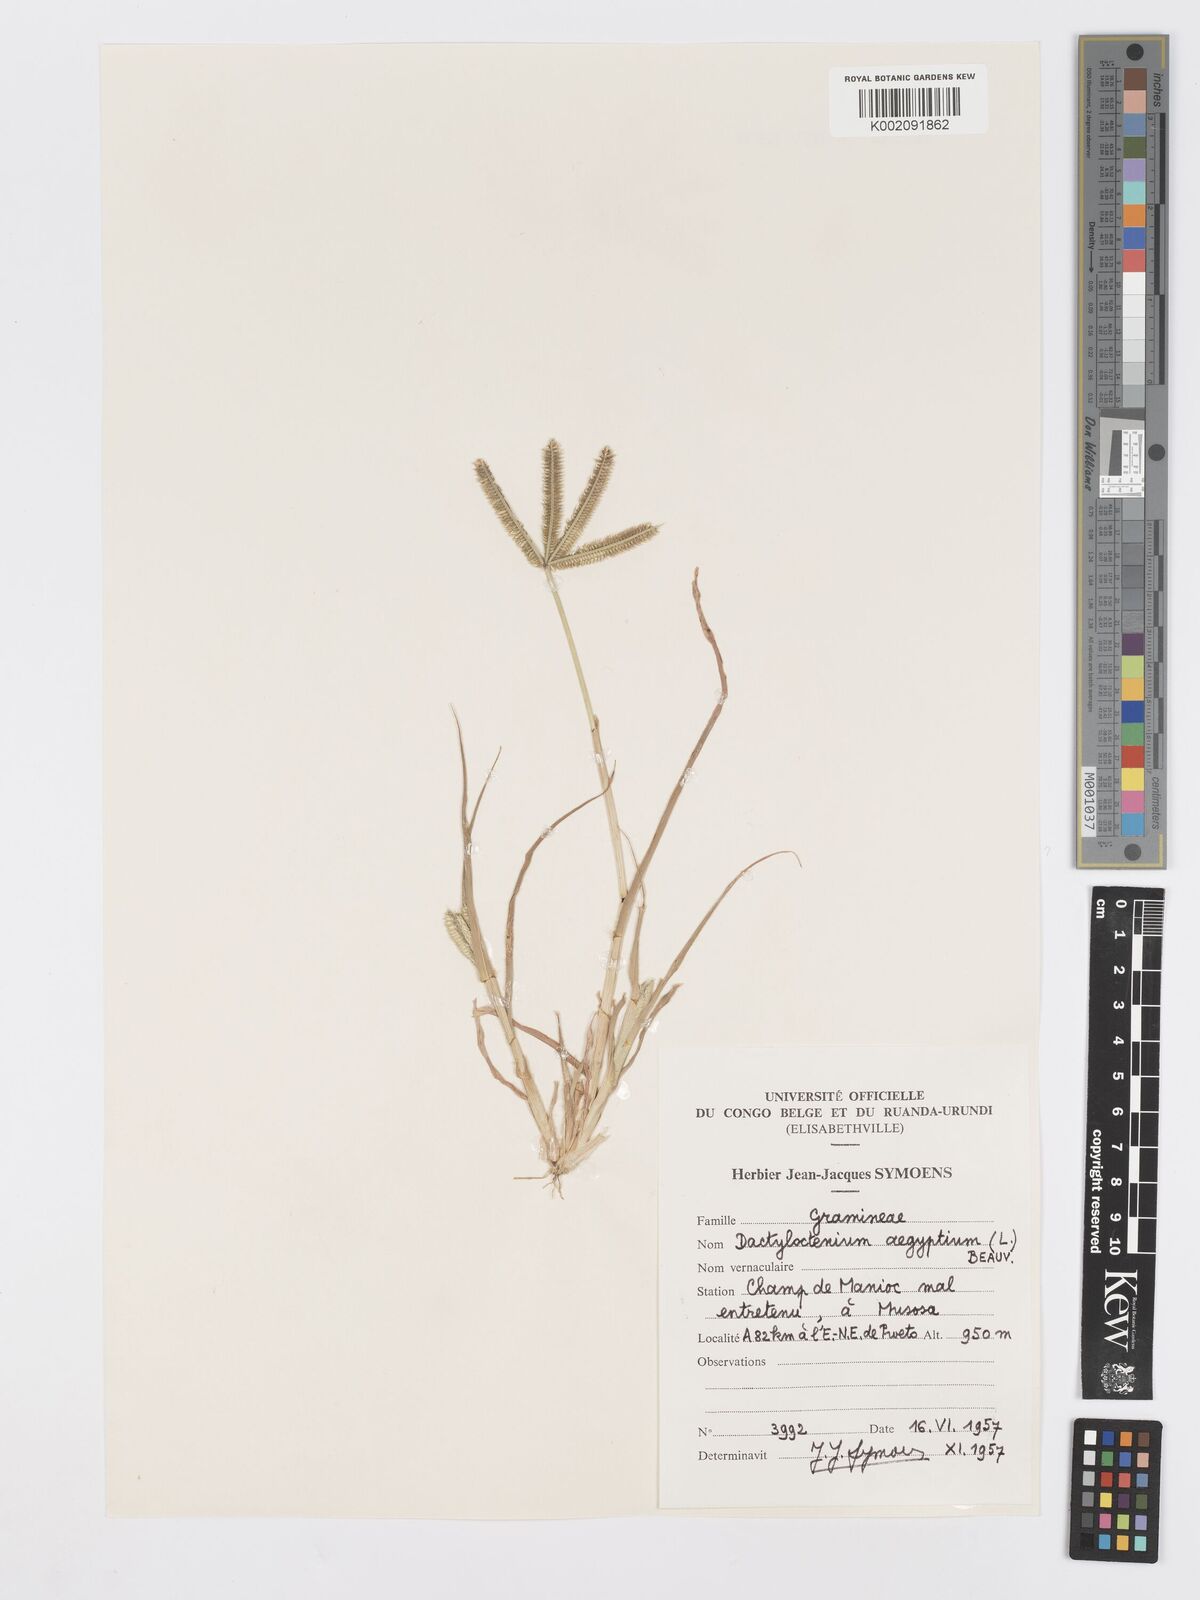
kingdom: Plantae
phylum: Tracheophyta
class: Liliopsida
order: Poales
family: Poaceae
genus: Dactyloctenium
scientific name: Dactyloctenium aegyptium
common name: Egyptian grass
